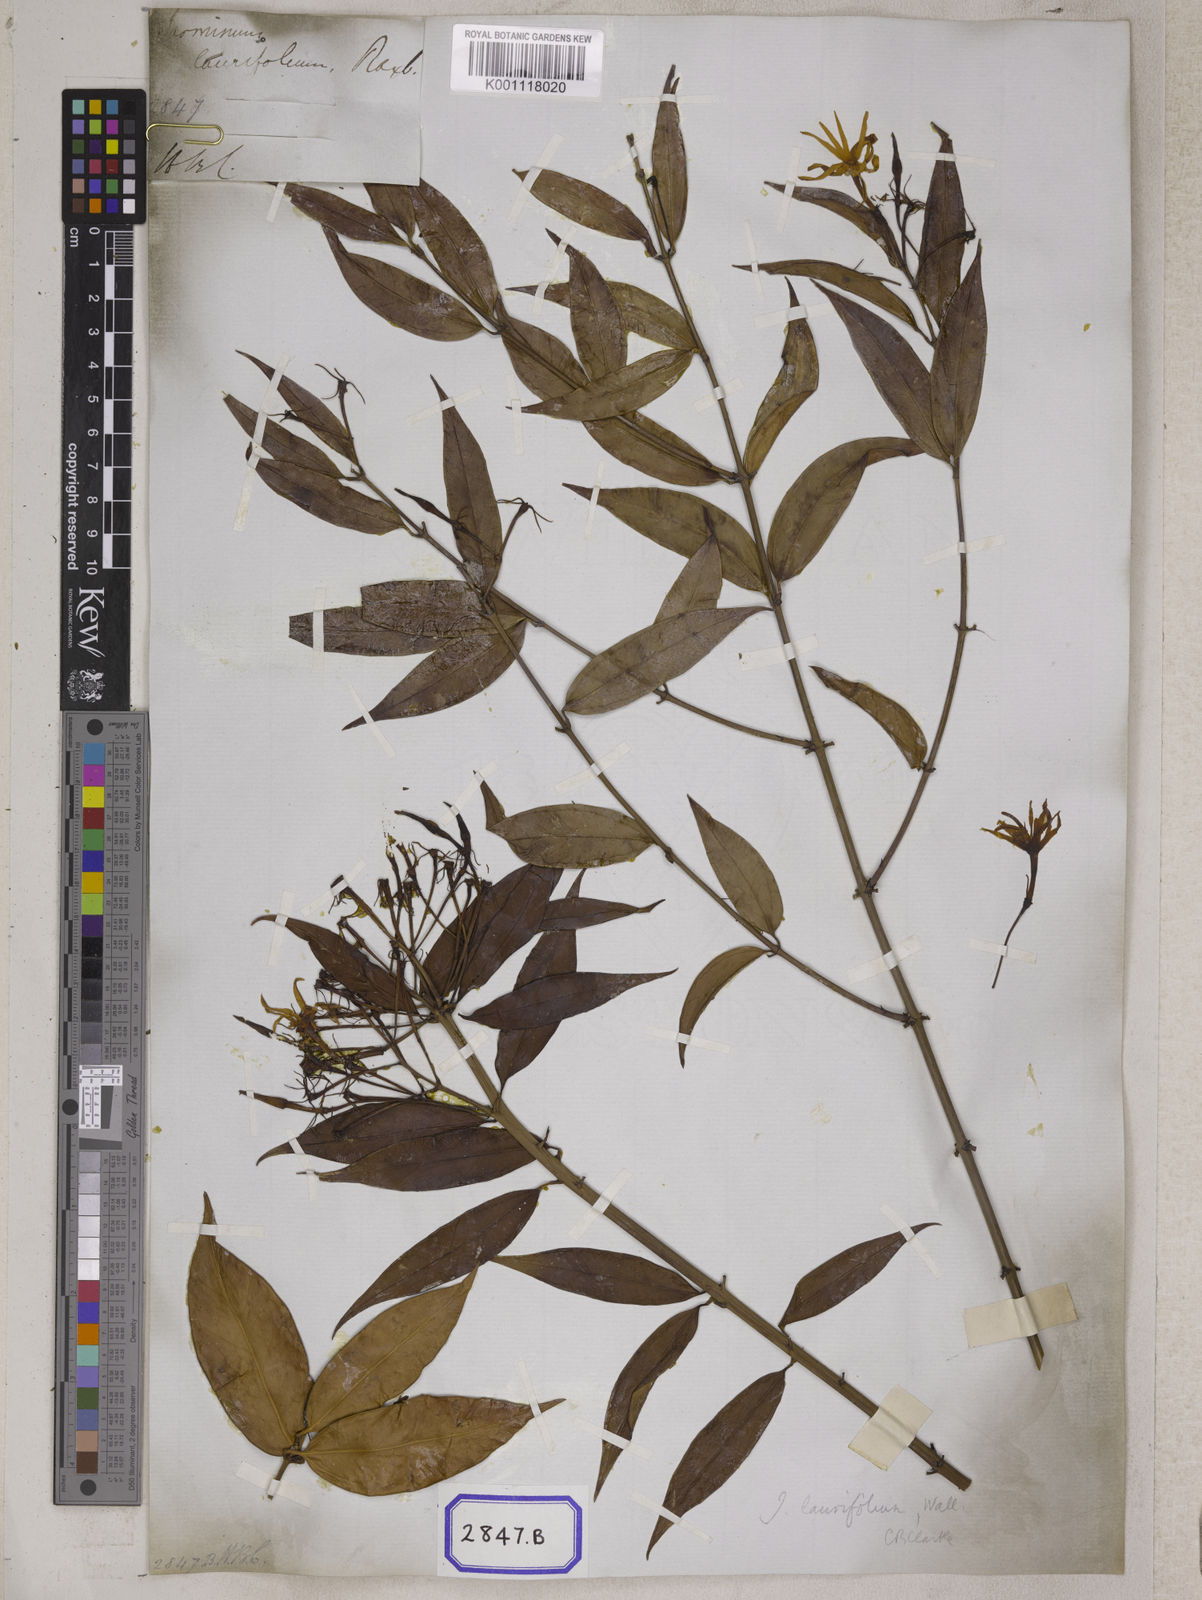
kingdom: Plantae
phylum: Tracheophyta
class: Magnoliopsida
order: Lamiales
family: Oleaceae
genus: Jasminum
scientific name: Jasminum
